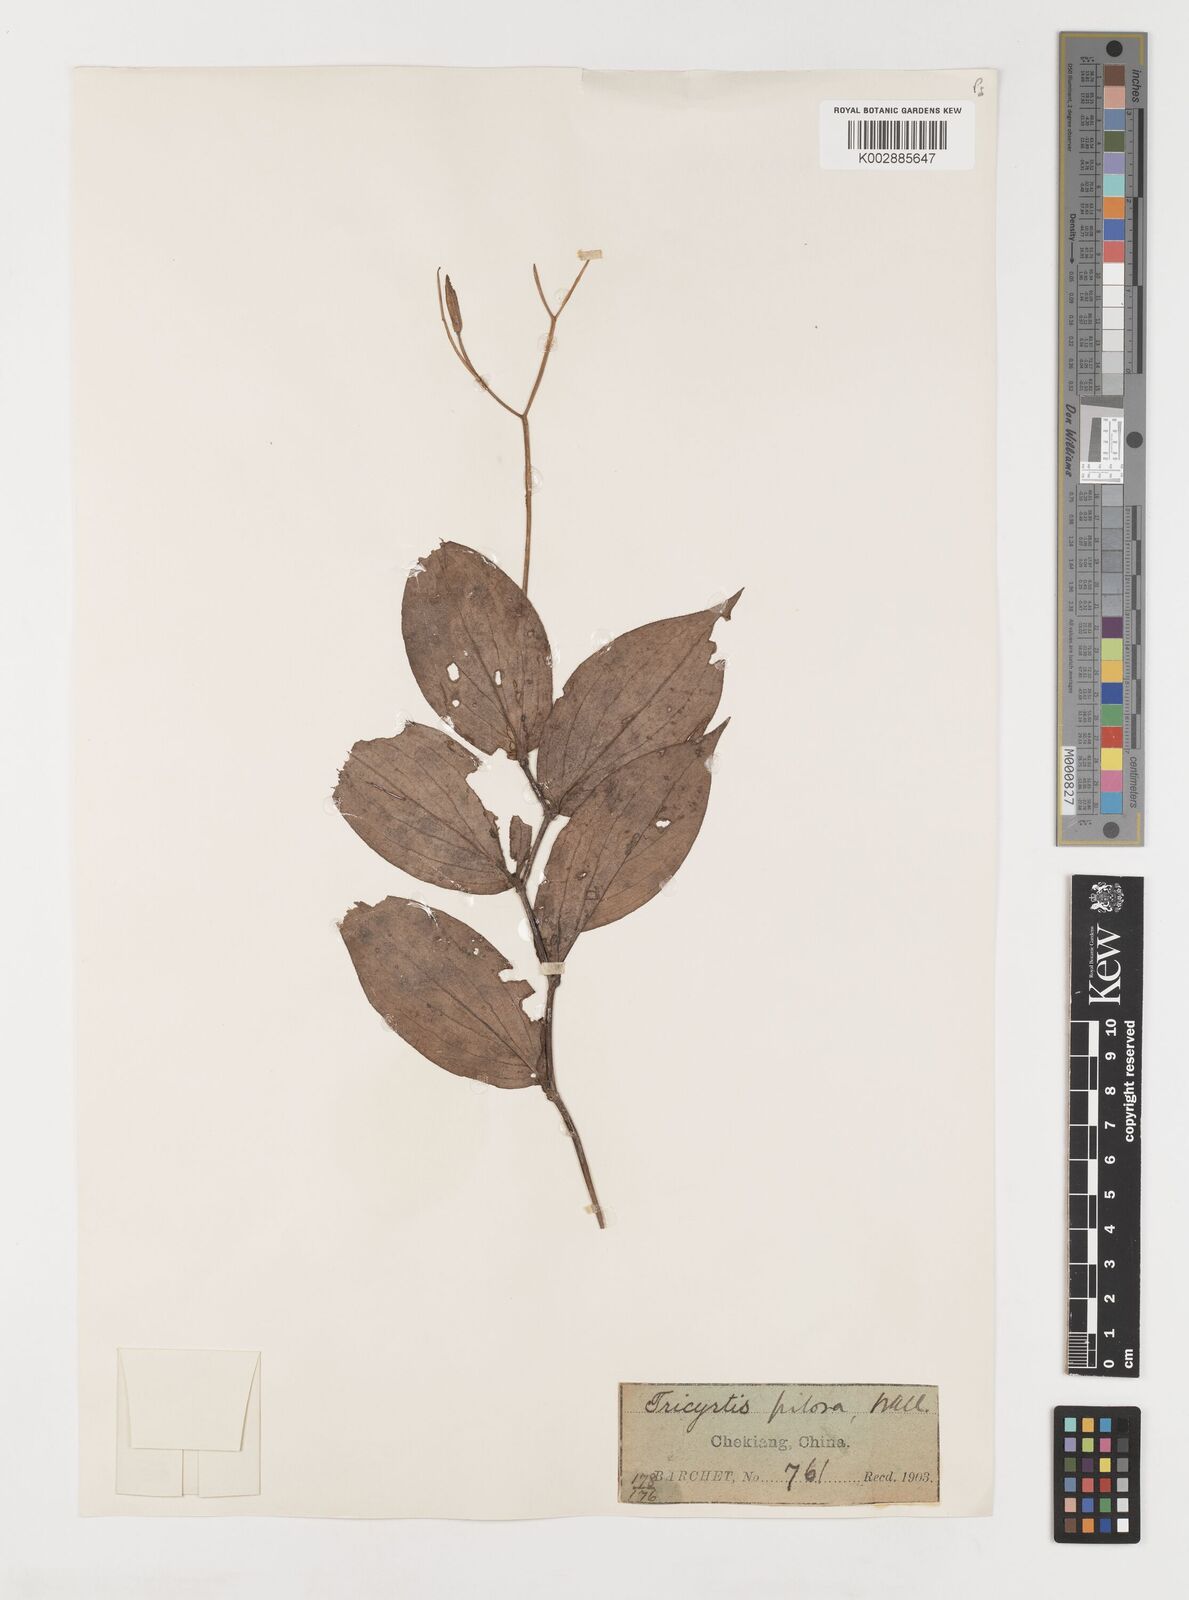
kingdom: Plantae
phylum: Tracheophyta
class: Liliopsida
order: Liliales
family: Liliaceae
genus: Tricyrtis
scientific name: Tricyrtis maculata
